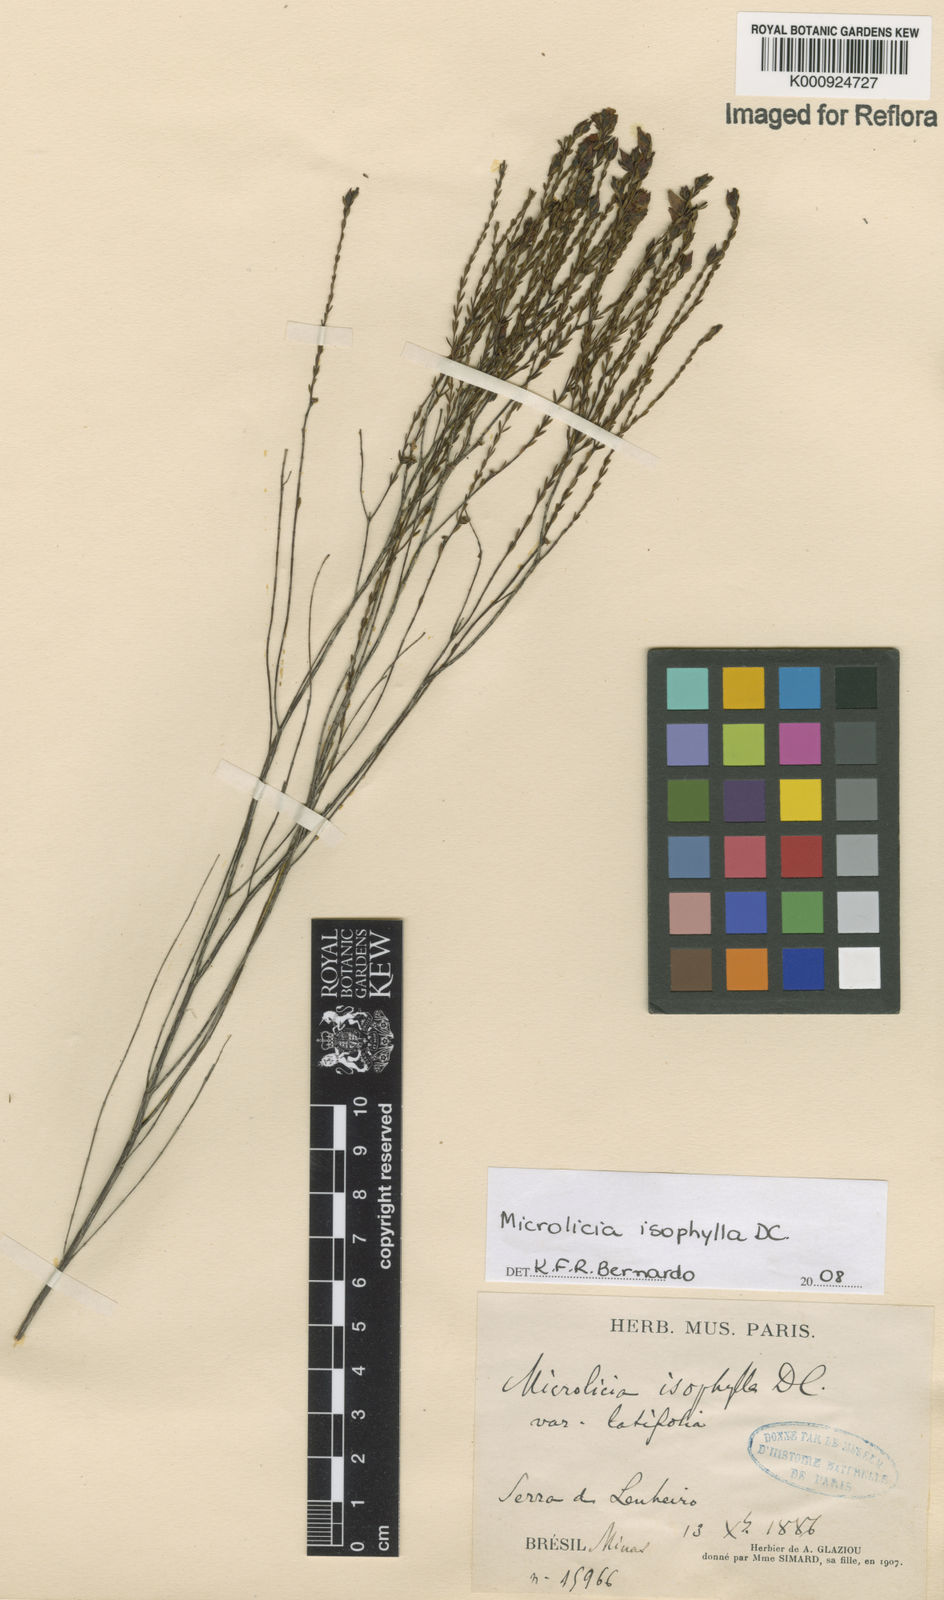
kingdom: Plantae
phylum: Tracheophyta
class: Magnoliopsida
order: Myrtales
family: Melastomataceae
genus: Microlicia
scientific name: Microlicia isophylla
